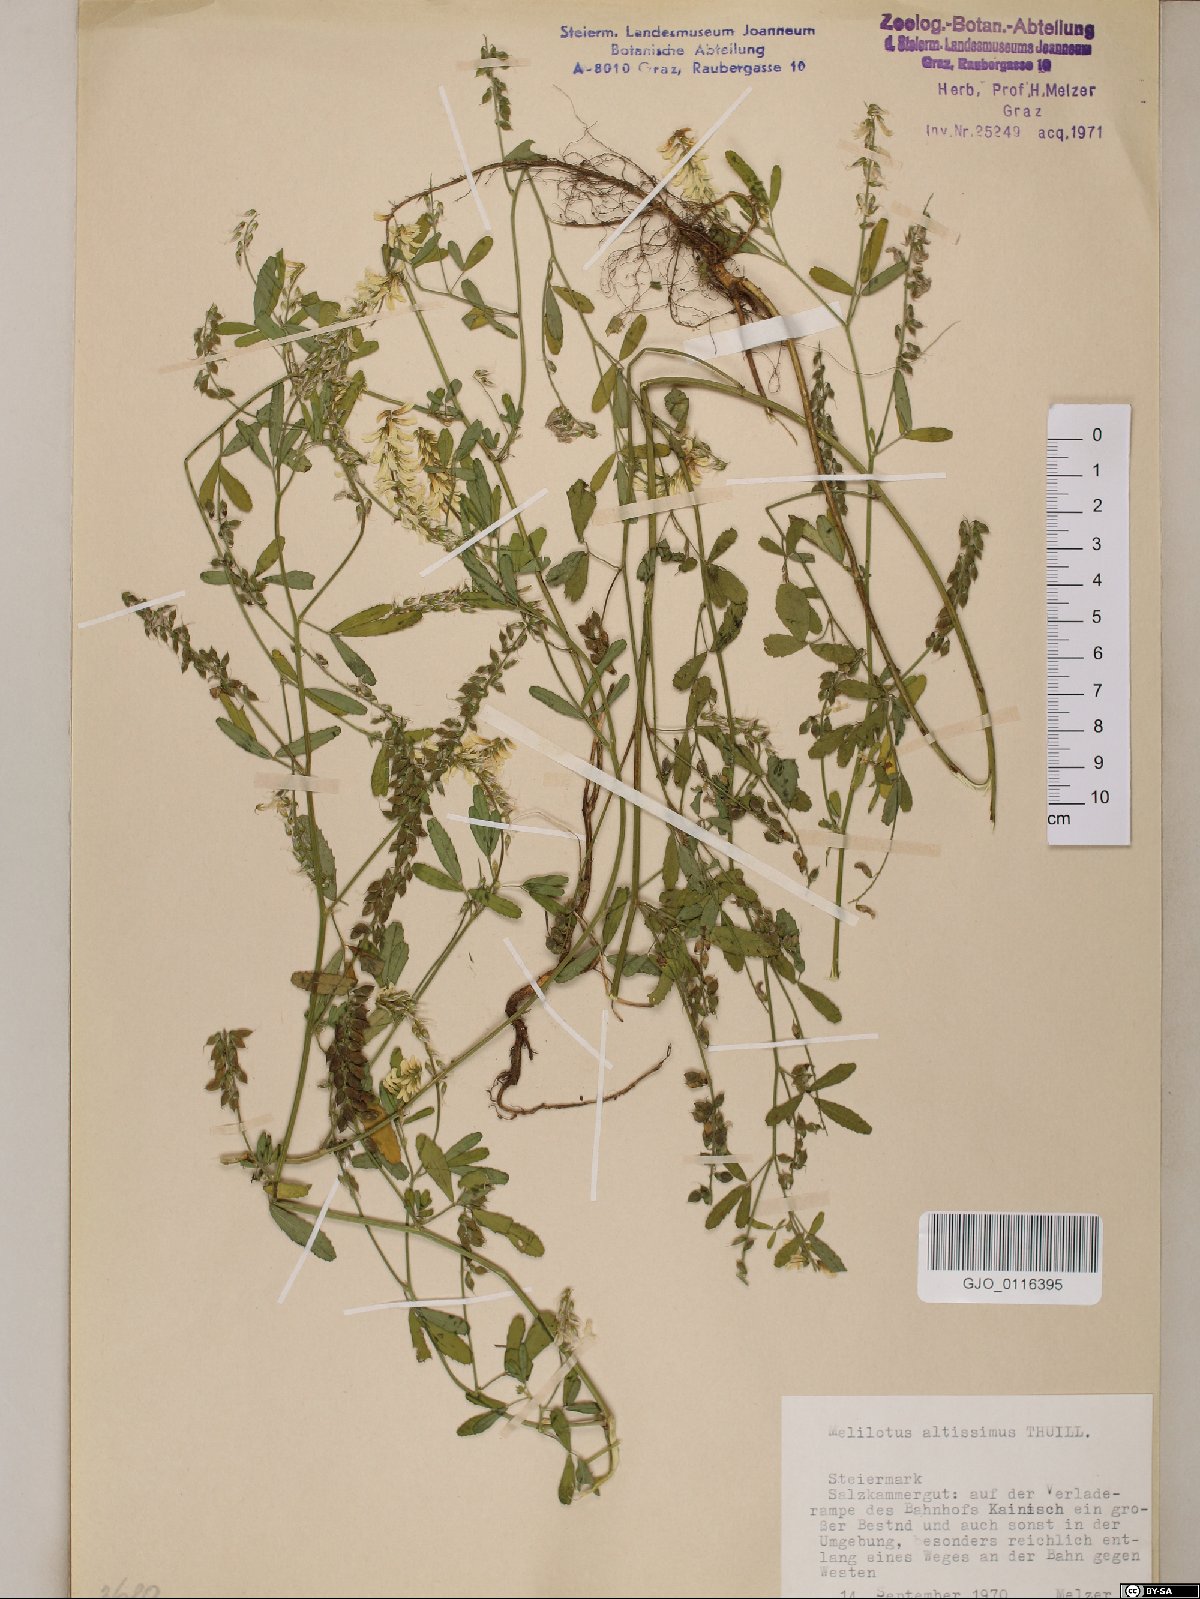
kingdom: Plantae
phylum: Tracheophyta
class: Magnoliopsida
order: Fabales
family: Fabaceae
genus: Melilotus
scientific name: Melilotus altissimus
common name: Tall melilot
